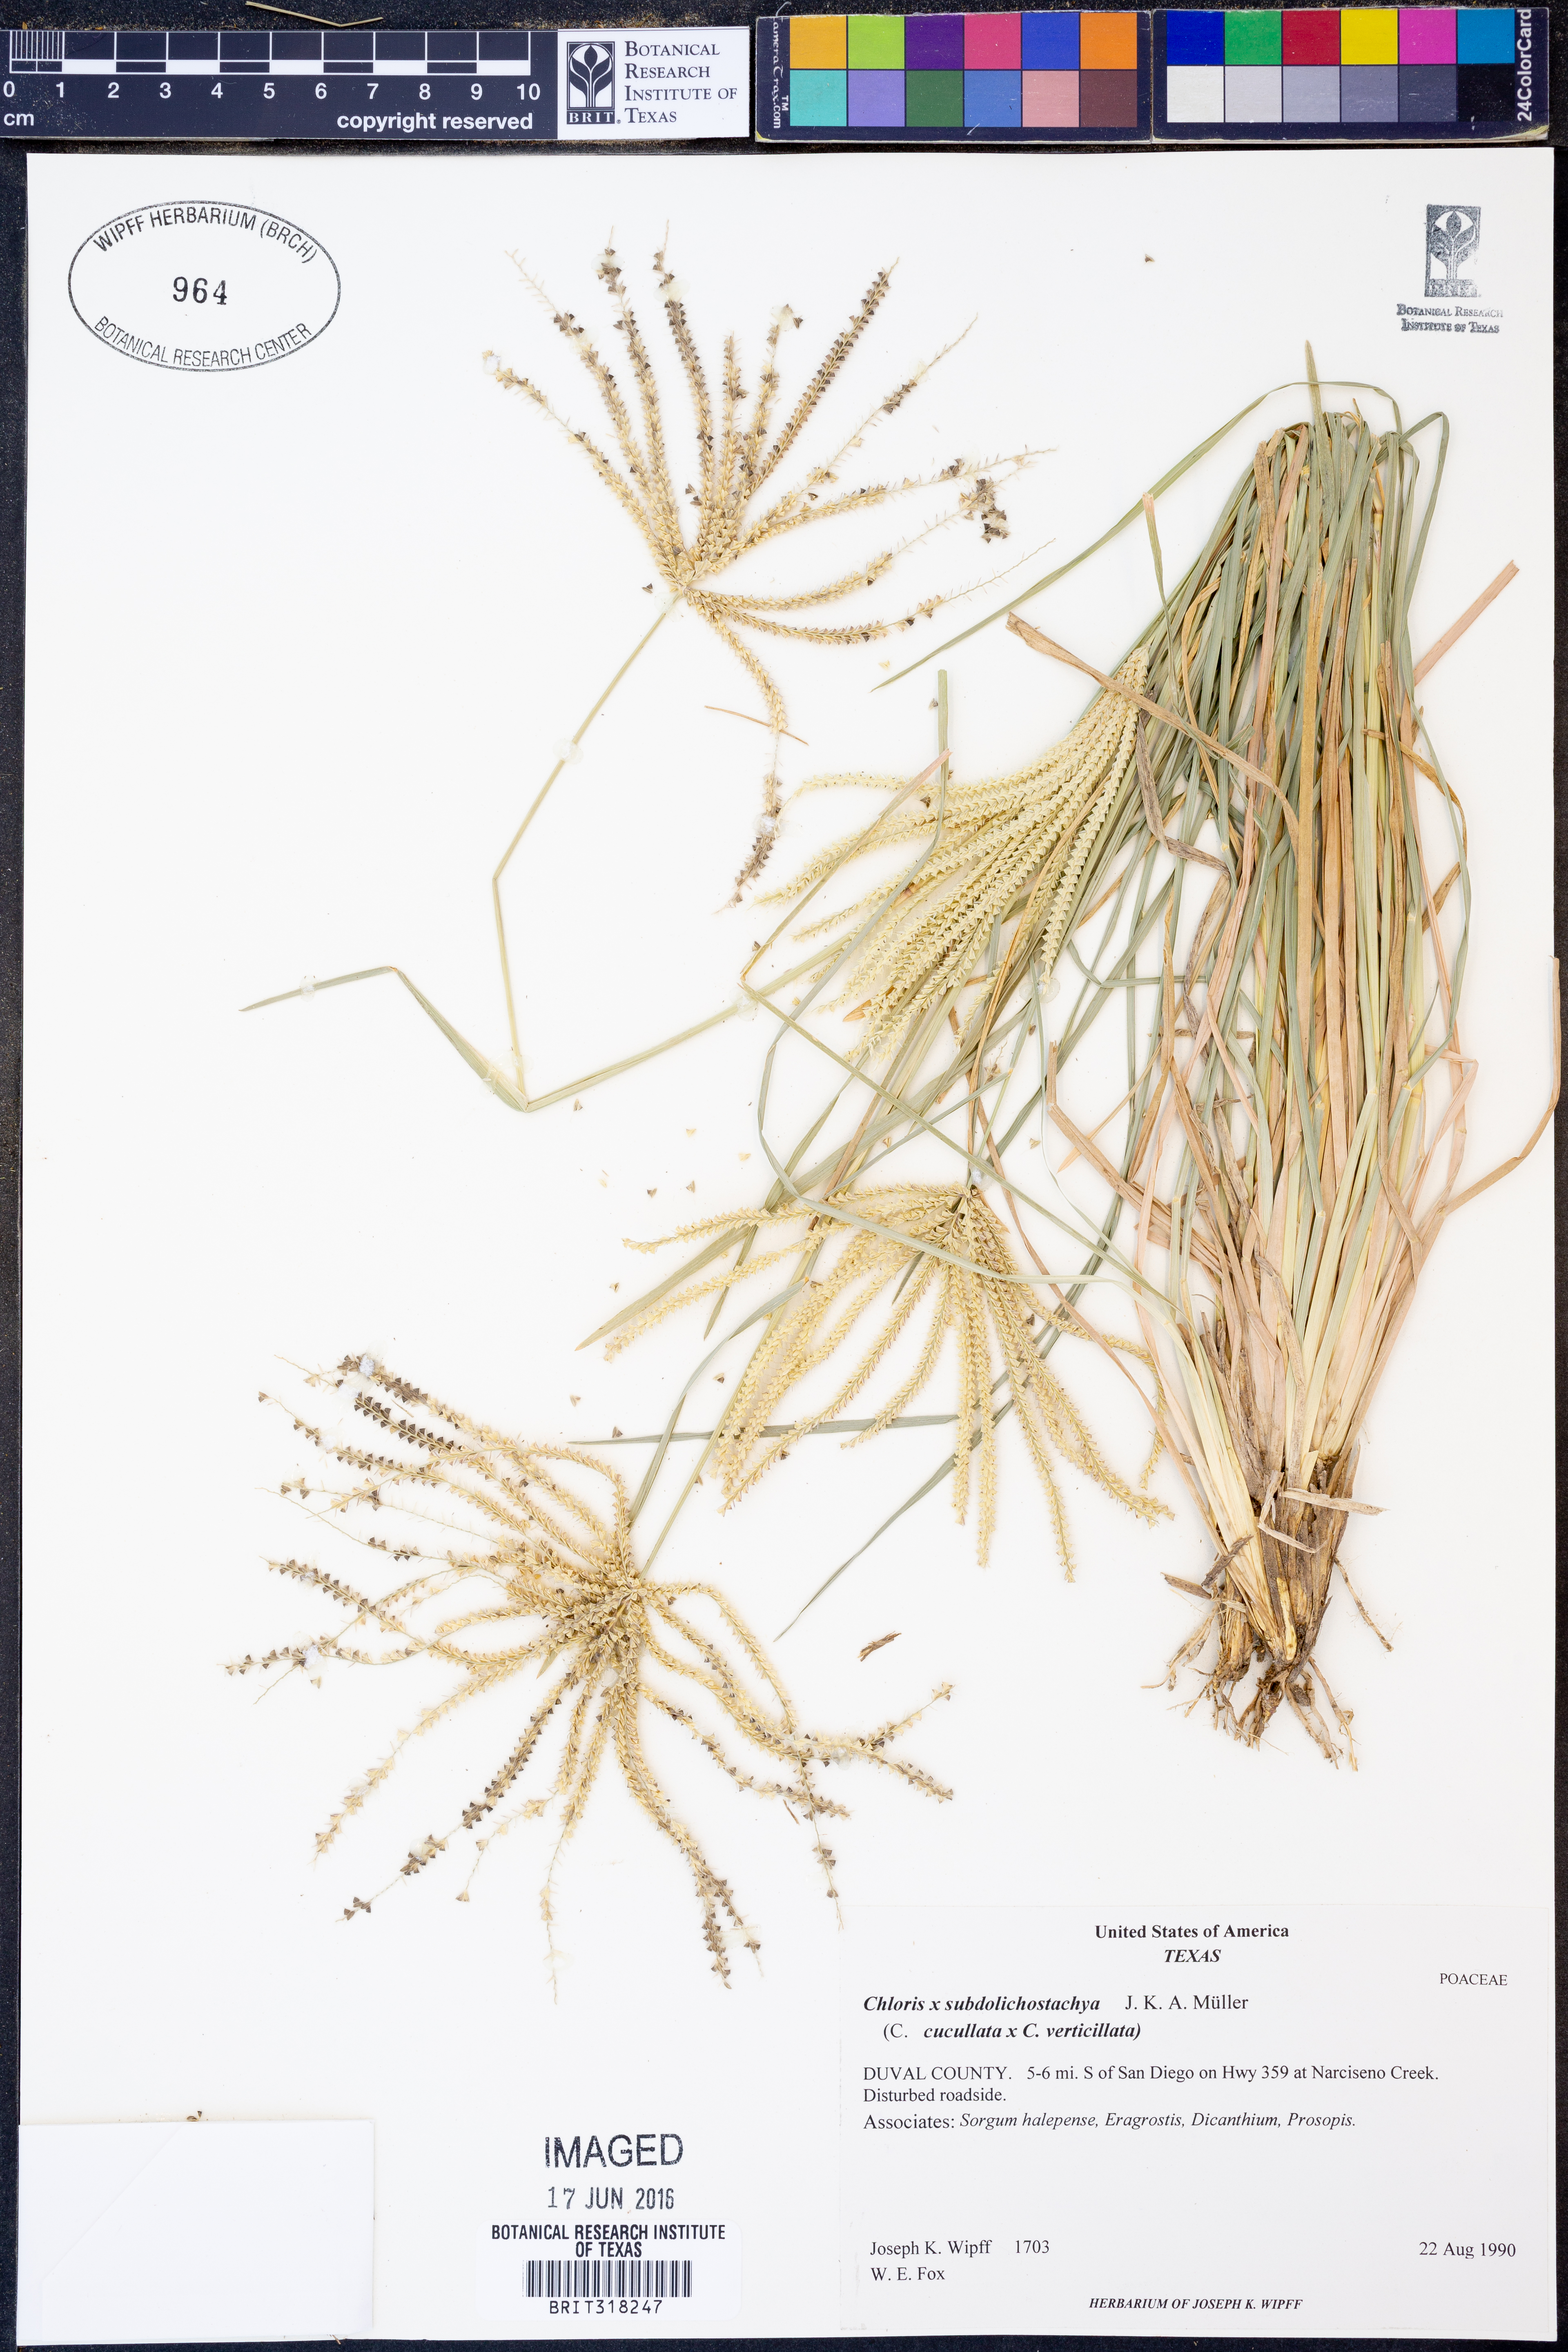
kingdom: Plantae
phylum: Tracheophyta
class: Liliopsida
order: Poales
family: Poaceae
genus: Chloris
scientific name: Chloris subdolichostachya
